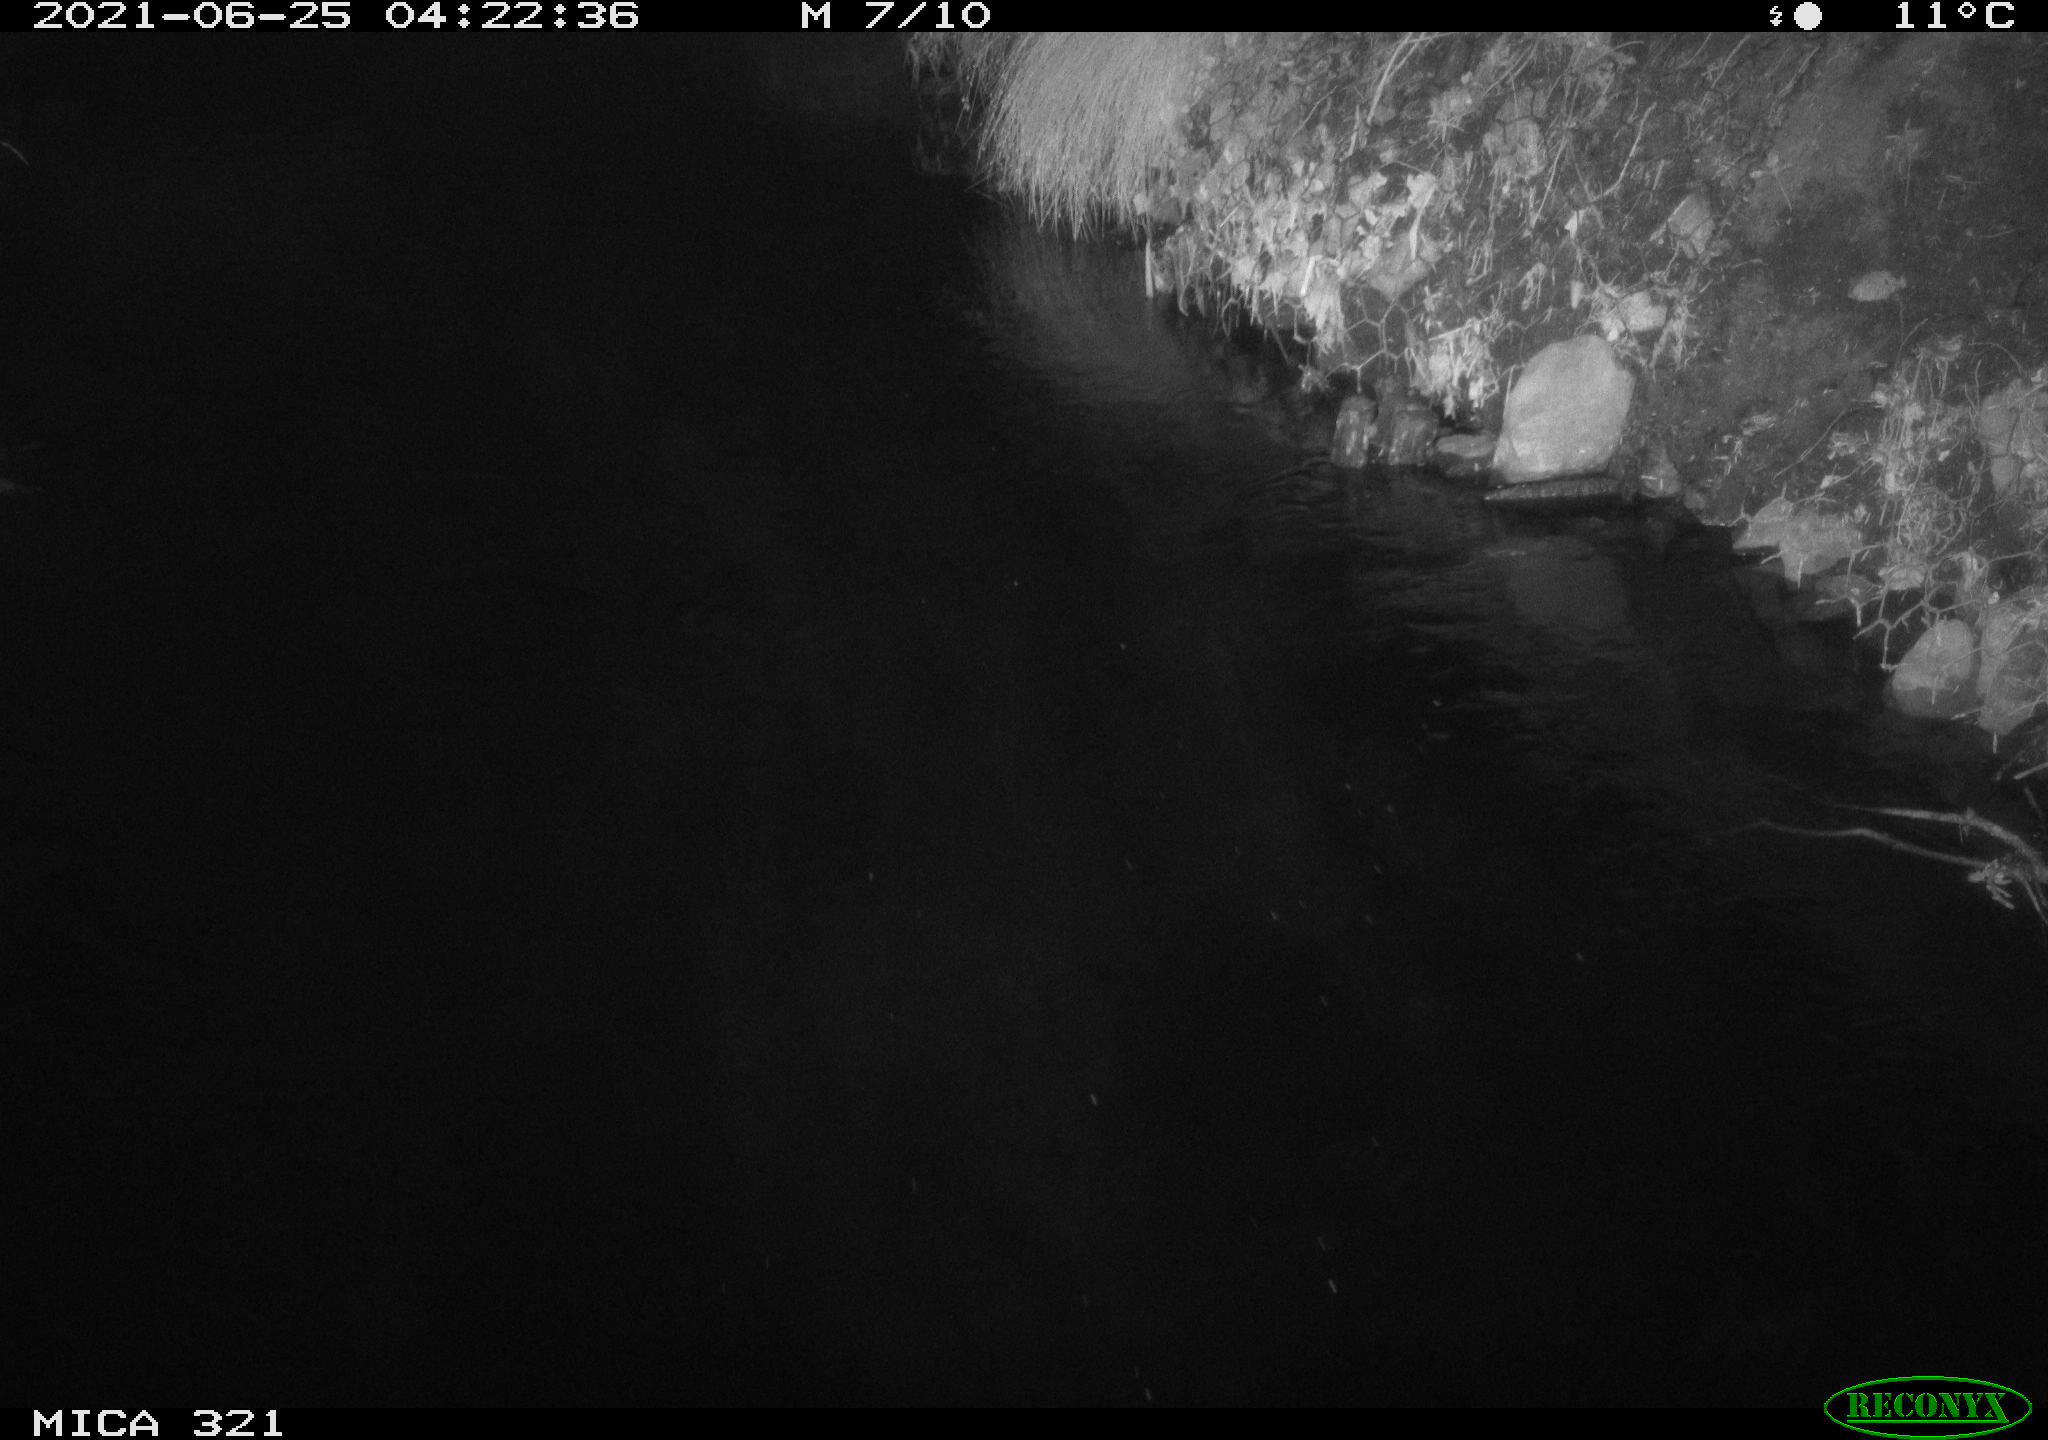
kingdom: Animalia
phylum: Chordata
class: Aves
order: Anseriformes
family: Anatidae
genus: Anas
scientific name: Anas platyrhynchos
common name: Mallard
